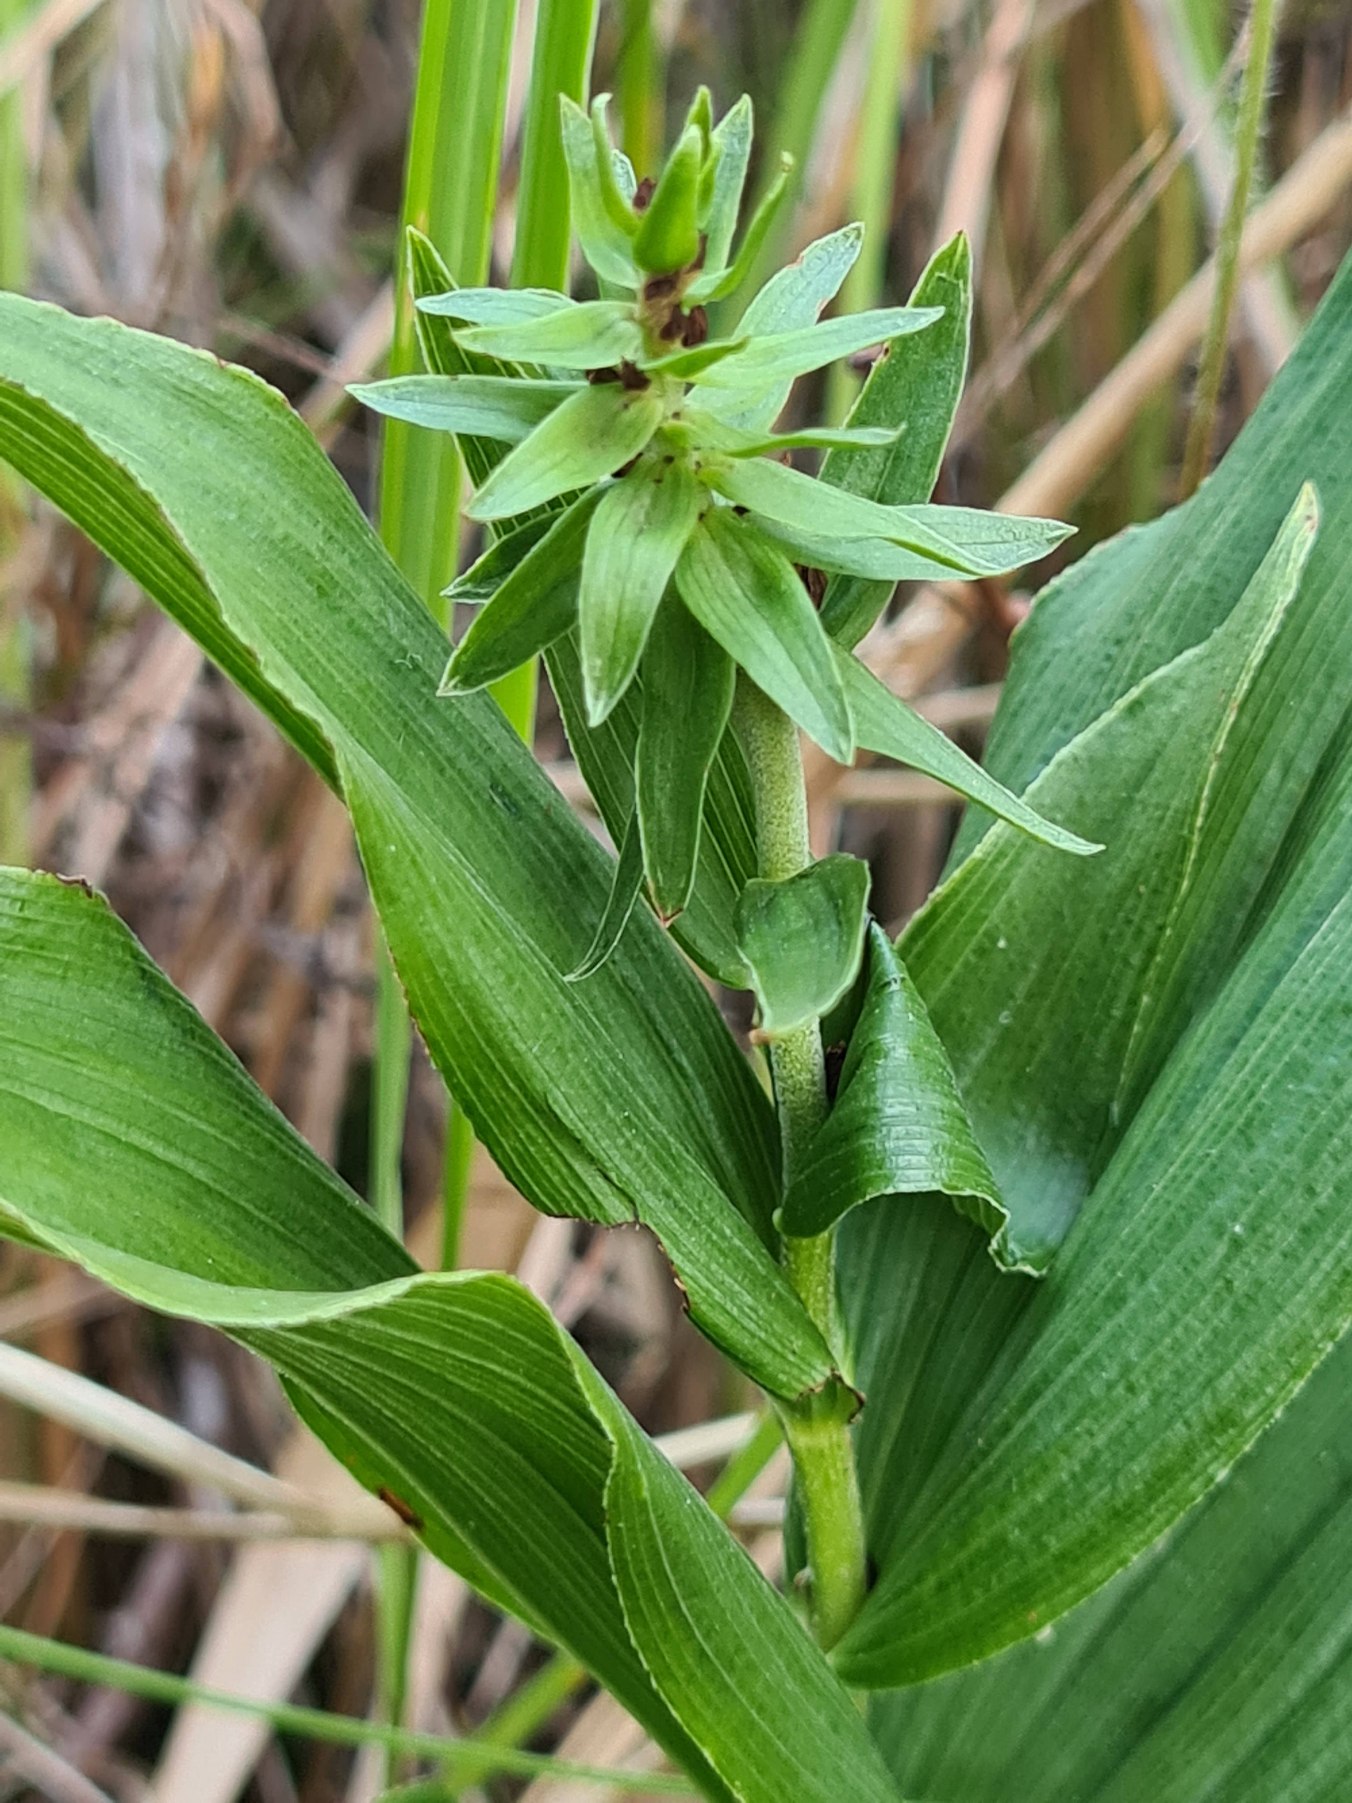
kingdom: Plantae
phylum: Tracheophyta
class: Liliopsida
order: Asparagales
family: Orchidaceae
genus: Epipactis
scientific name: Epipactis helleborine
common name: Skov-hullæbe
